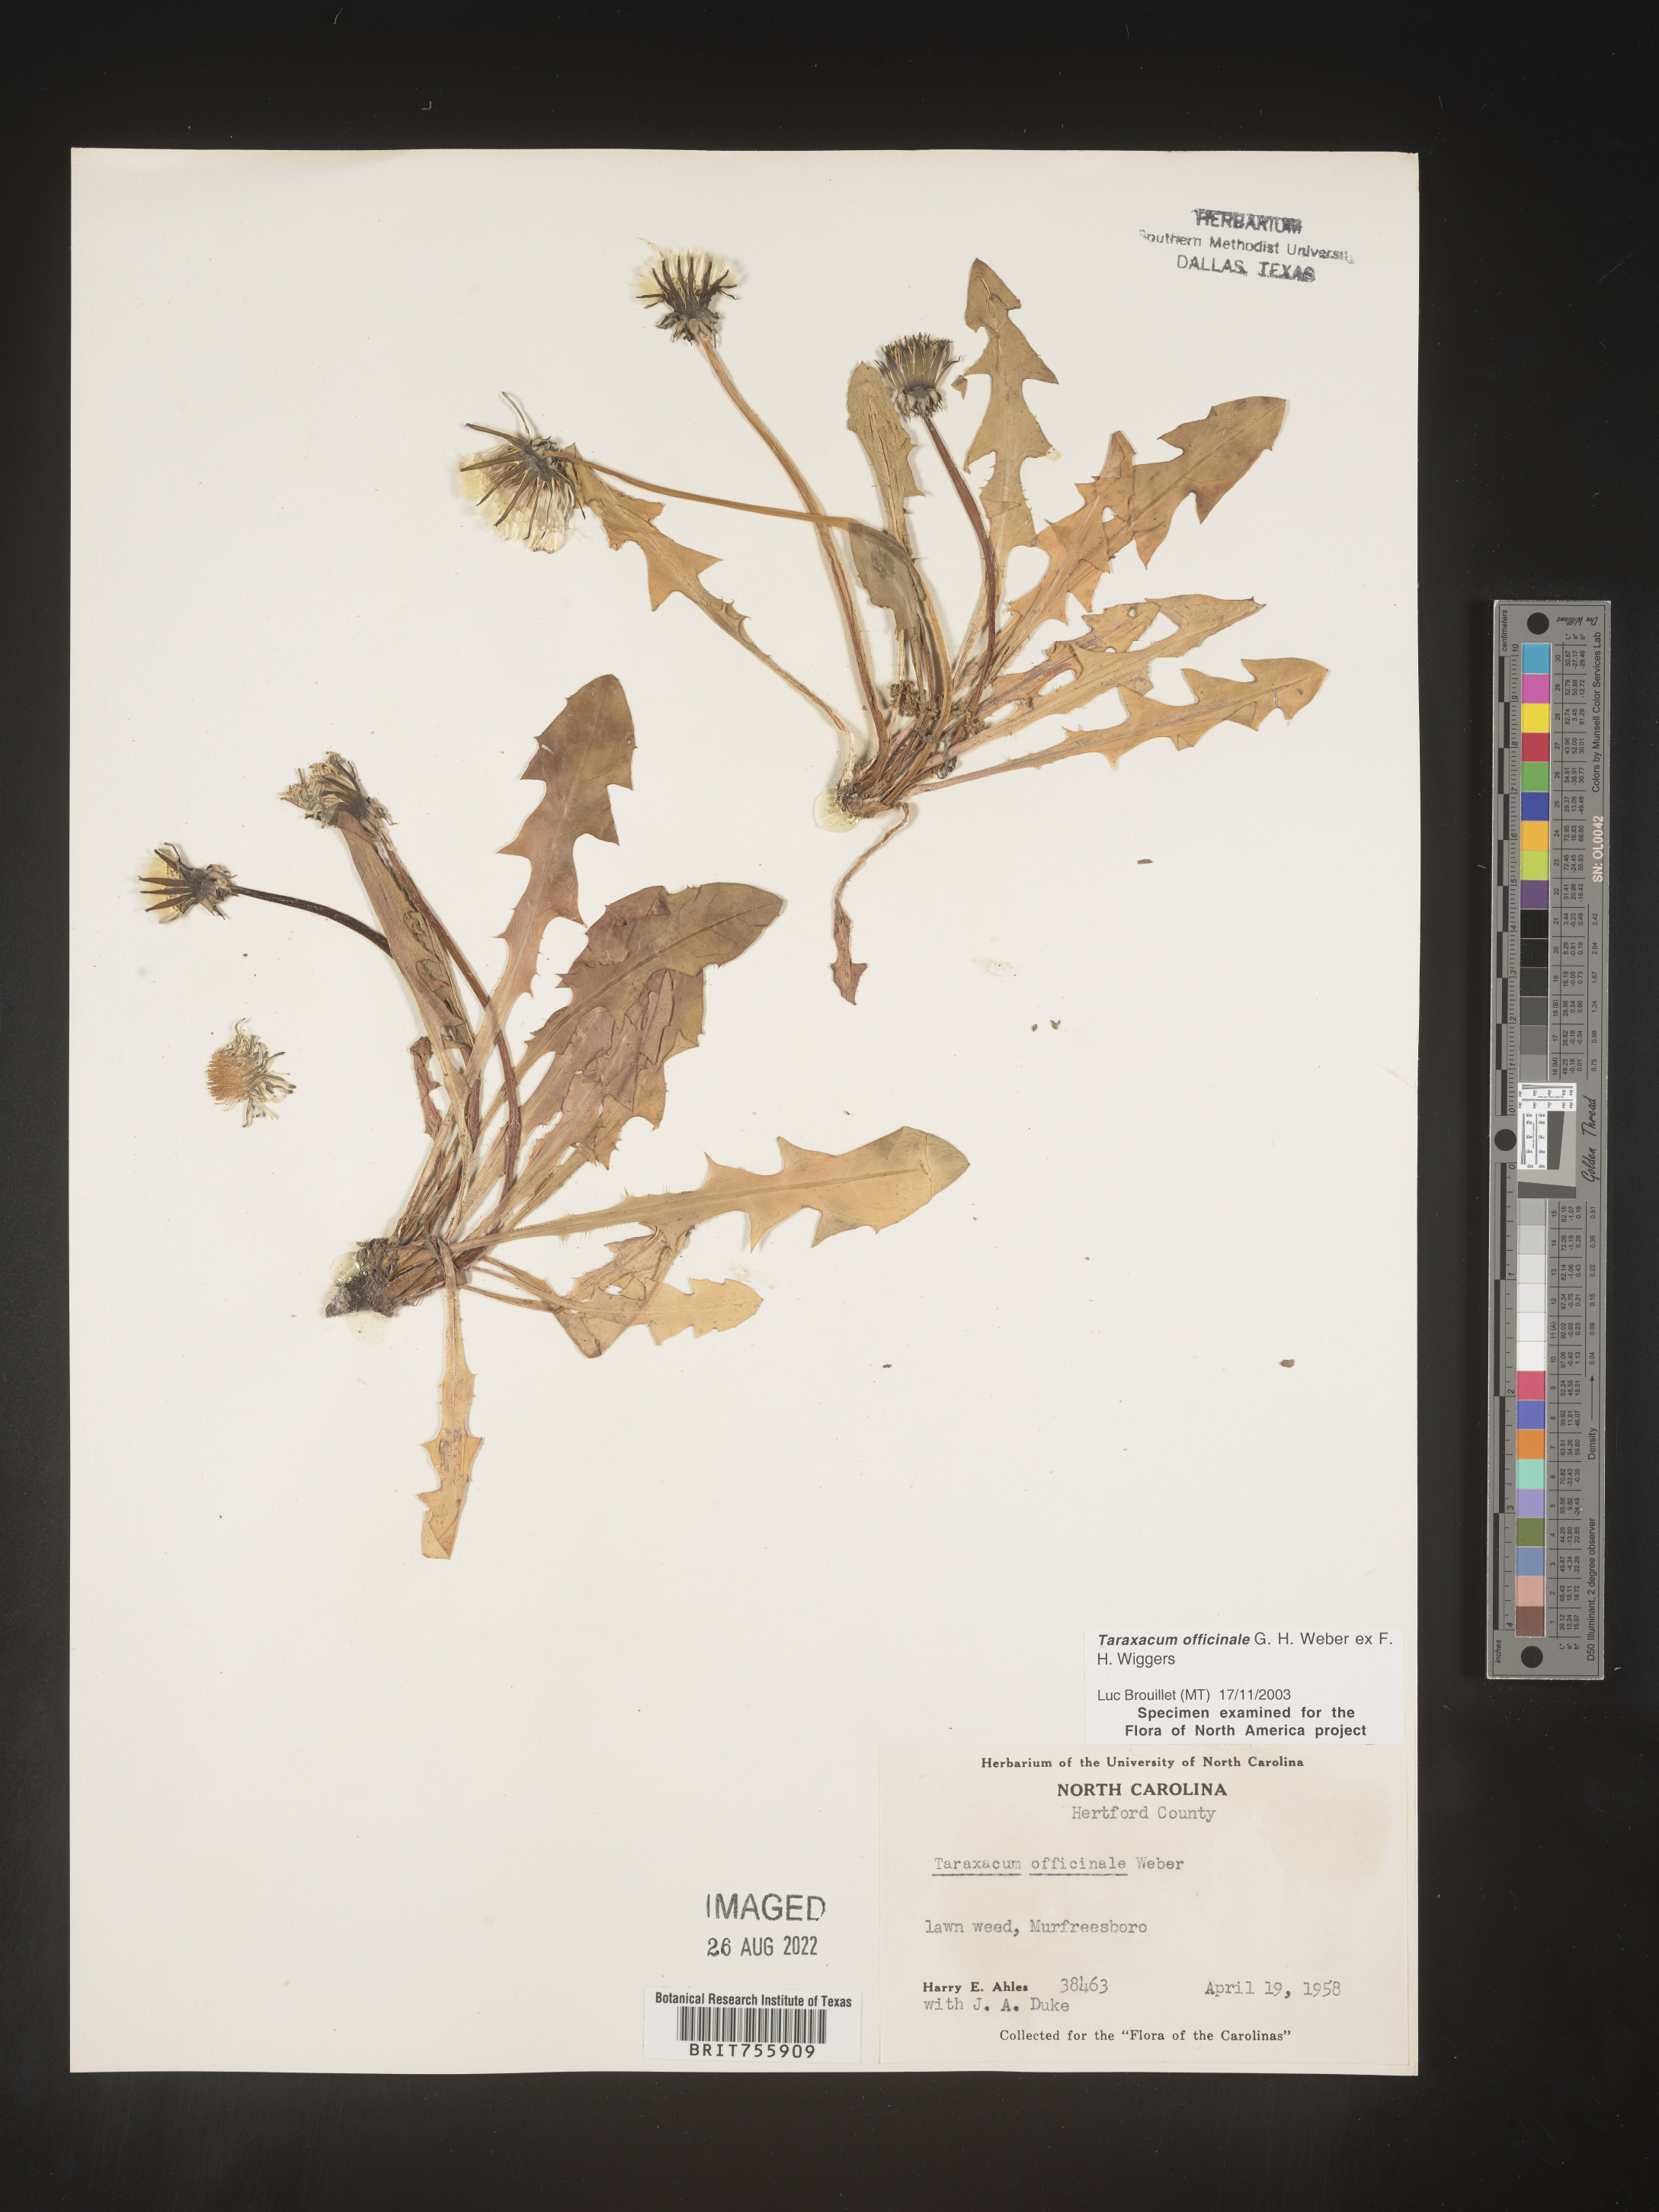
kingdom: Plantae
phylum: Tracheophyta
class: Magnoliopsida
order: Asterales
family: Asteraceae
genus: Taraxacum
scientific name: Taraxacum officinale
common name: Common dandelion
